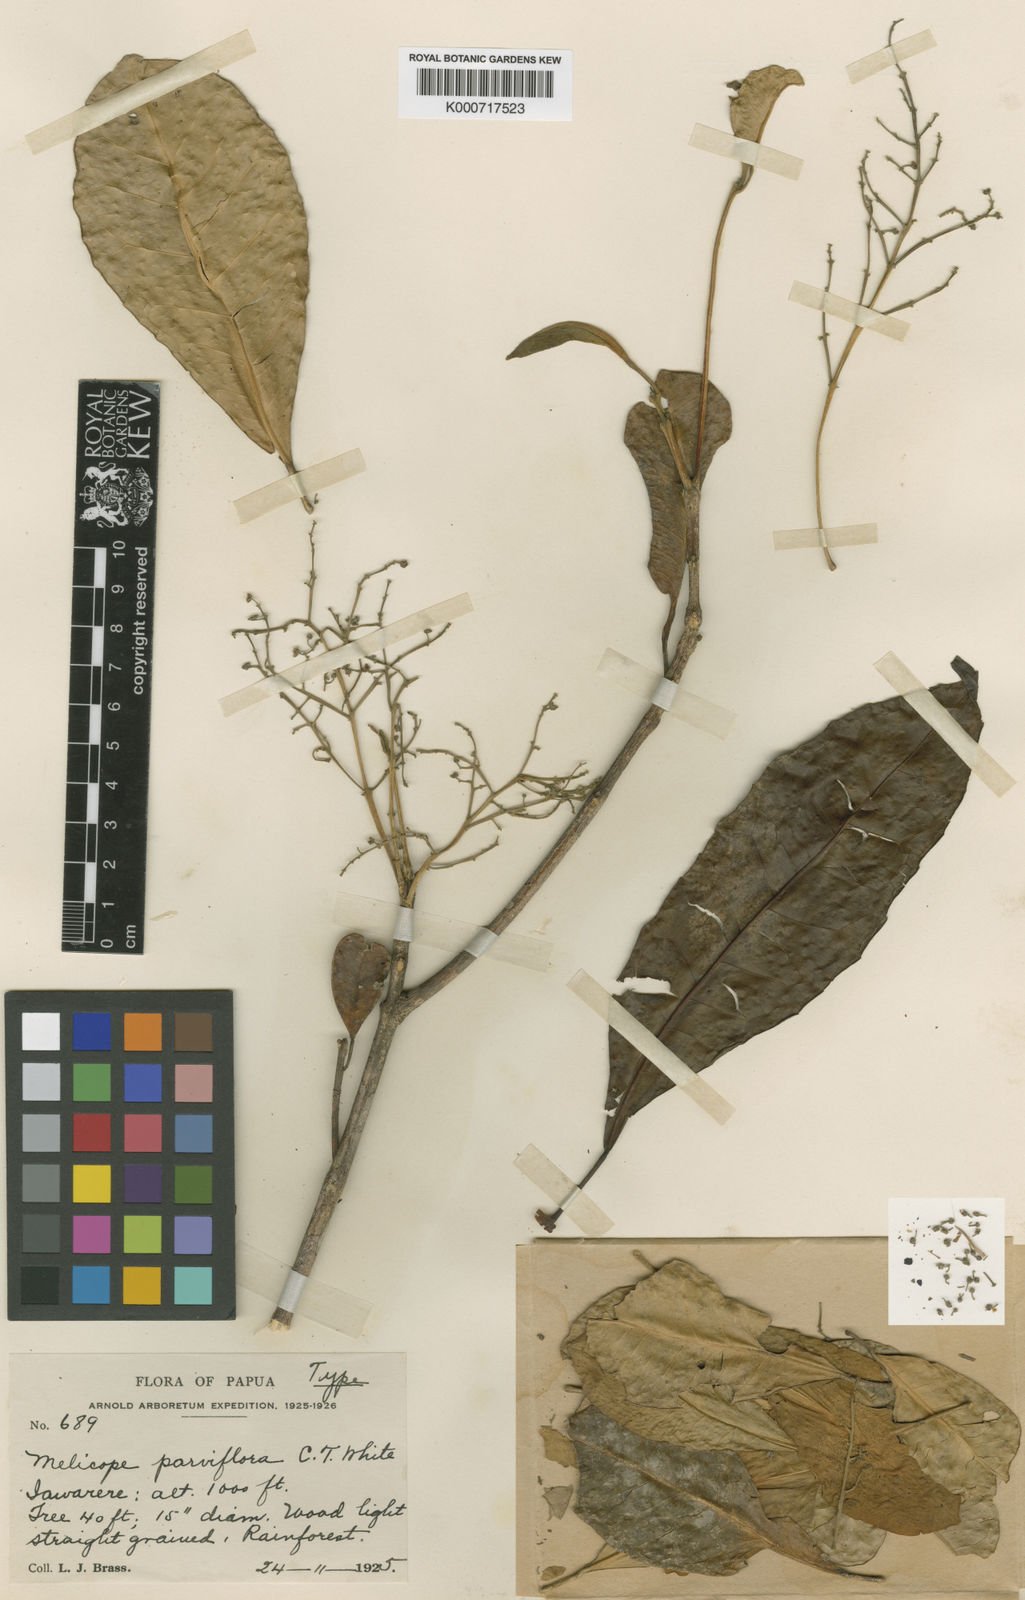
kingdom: Plantae
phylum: Tracheophyta
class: Magnoliopsida
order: Sapindales
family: Rutaceae
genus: Perryodendron
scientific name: Perryodendron parviflorum
